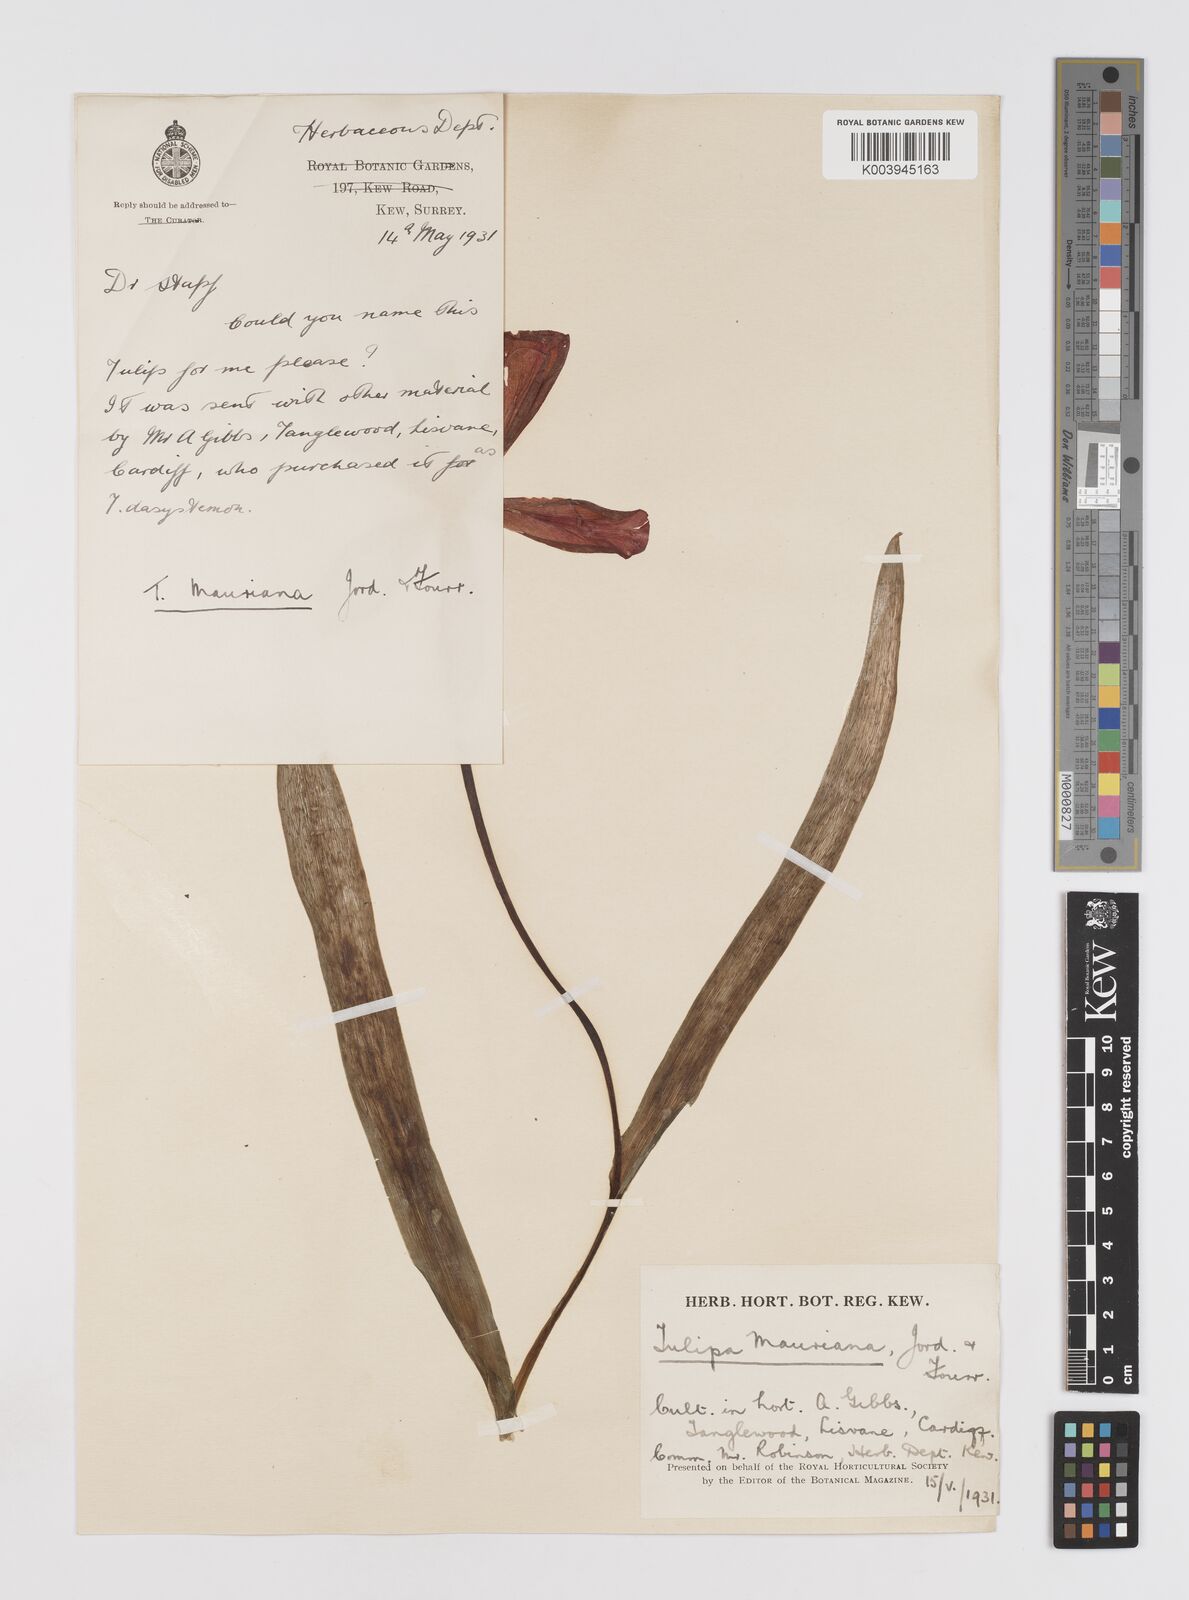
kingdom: Plantae
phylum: Tracheophyta
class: Liliopsida
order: Liliales
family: Liliaceae
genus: Tulipa
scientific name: Tulipa gesneriana
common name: Garden tulip
